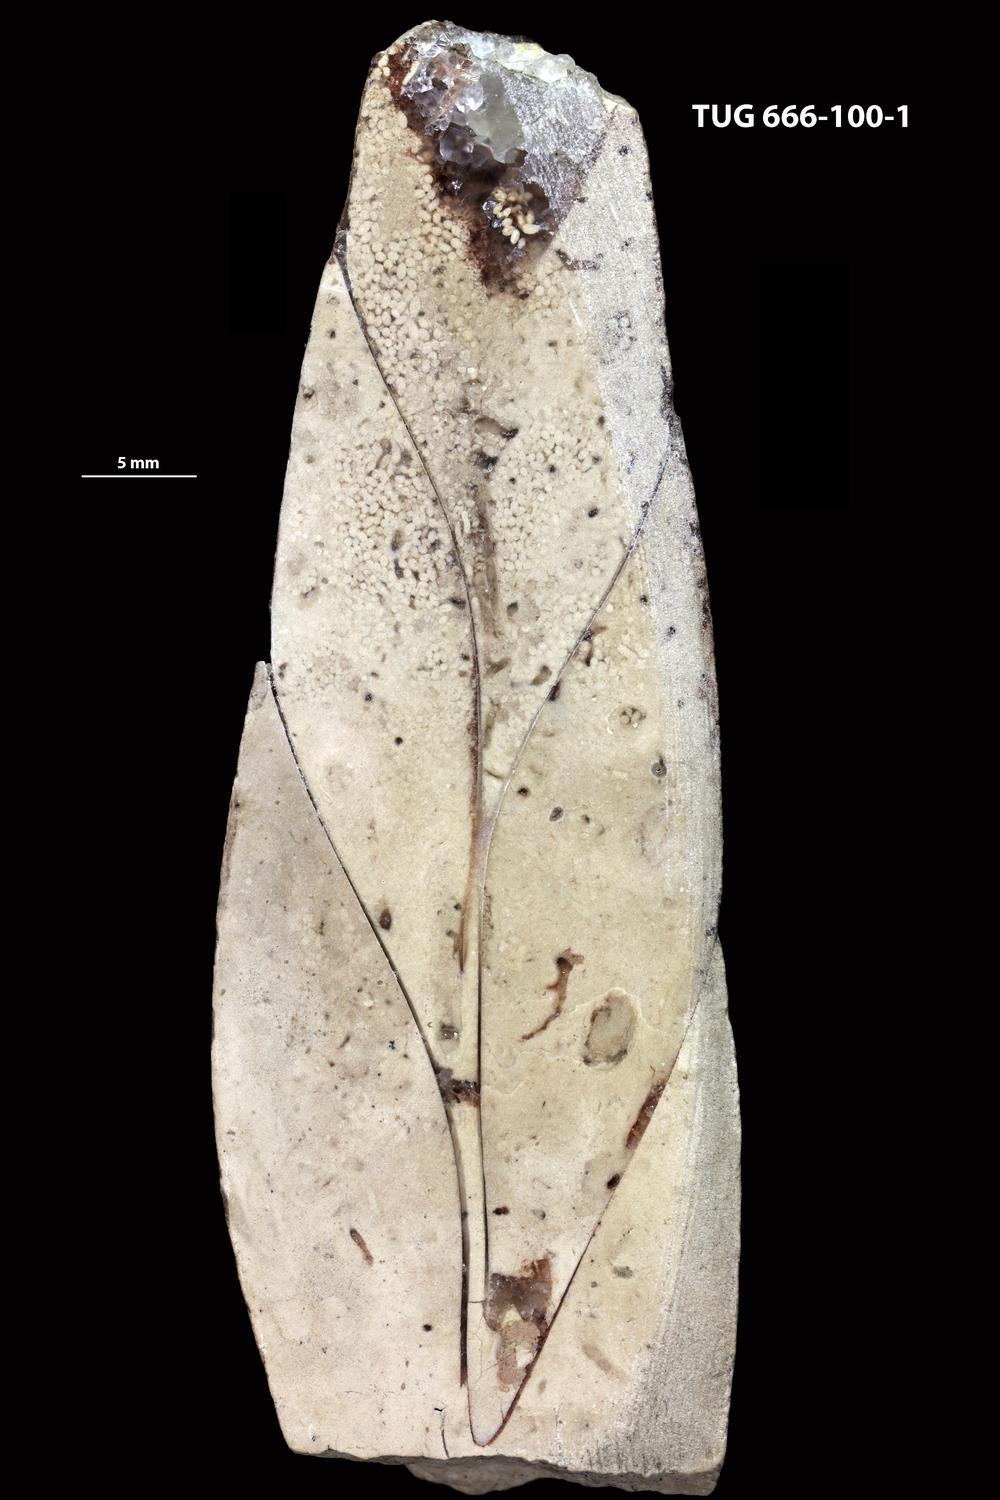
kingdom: Animalia
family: Coprulidae
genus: Coprulus
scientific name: Coprulus
